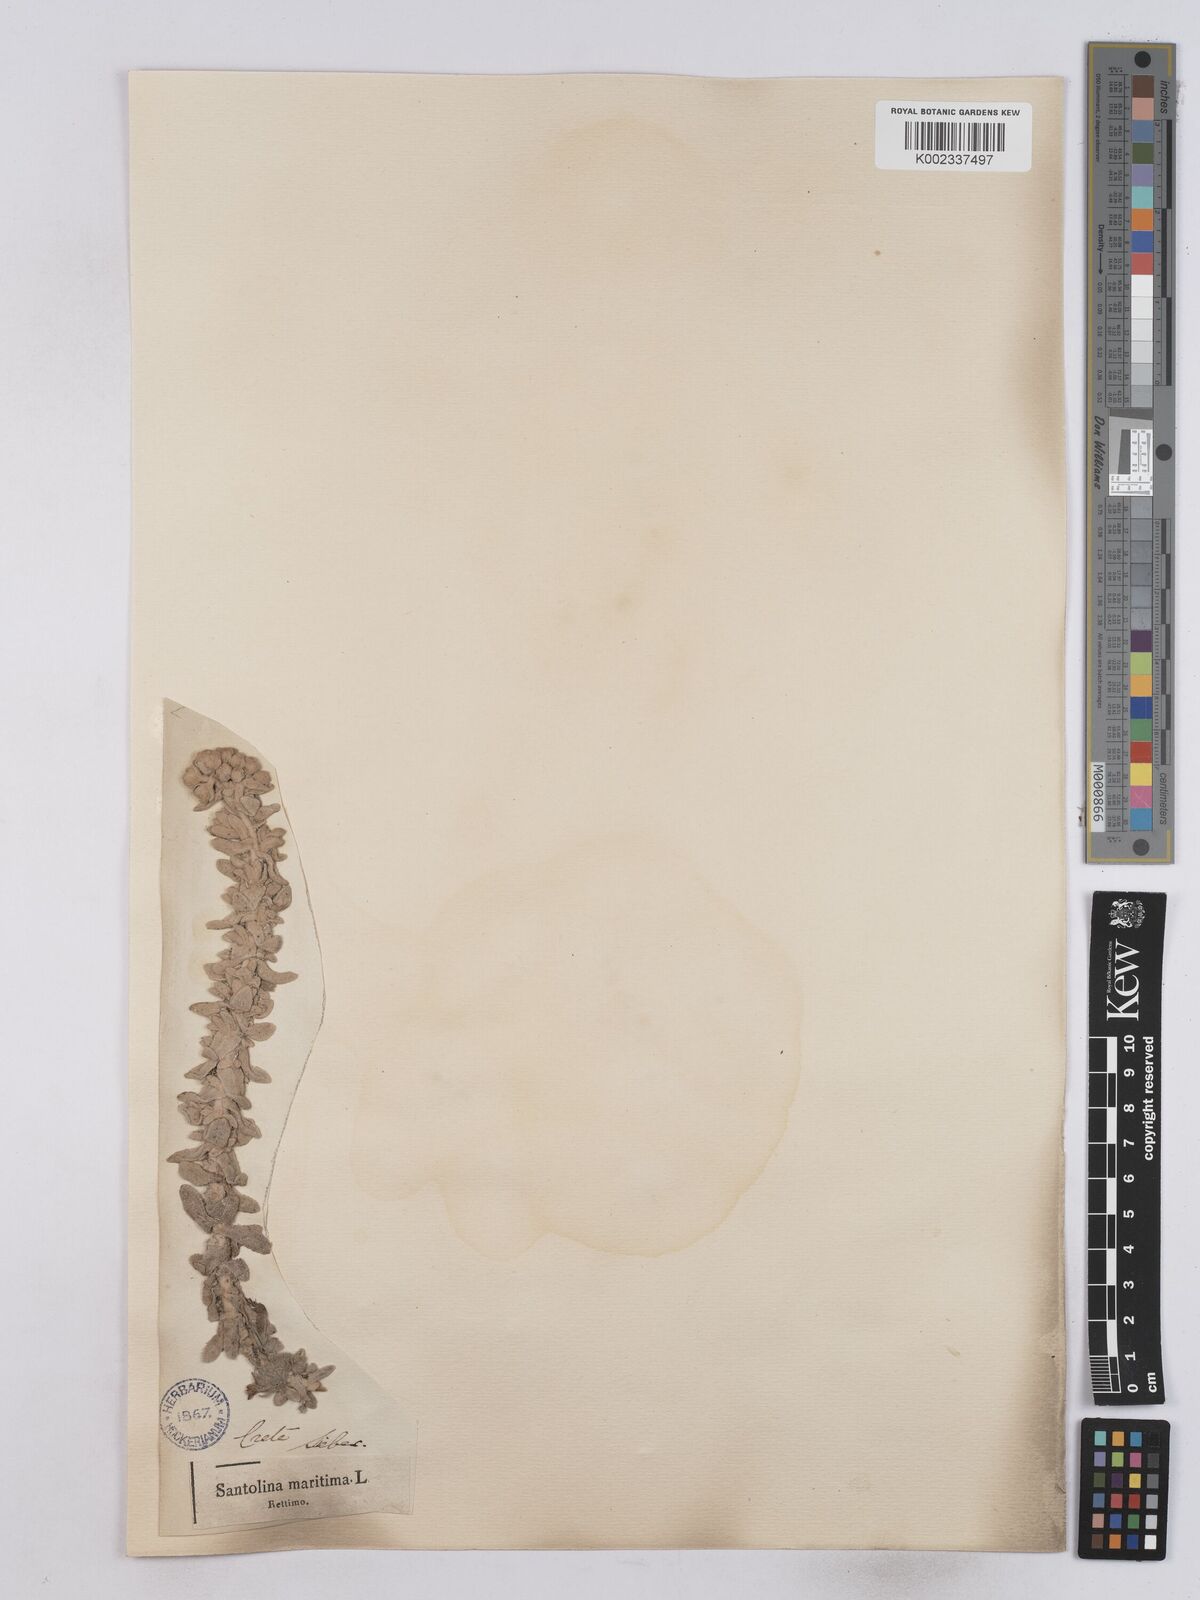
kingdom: Plantae
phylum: Tracheophyta
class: Magnoliopsida
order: Asterales
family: Asteraceae
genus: Achillea
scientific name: Achillea maritima
